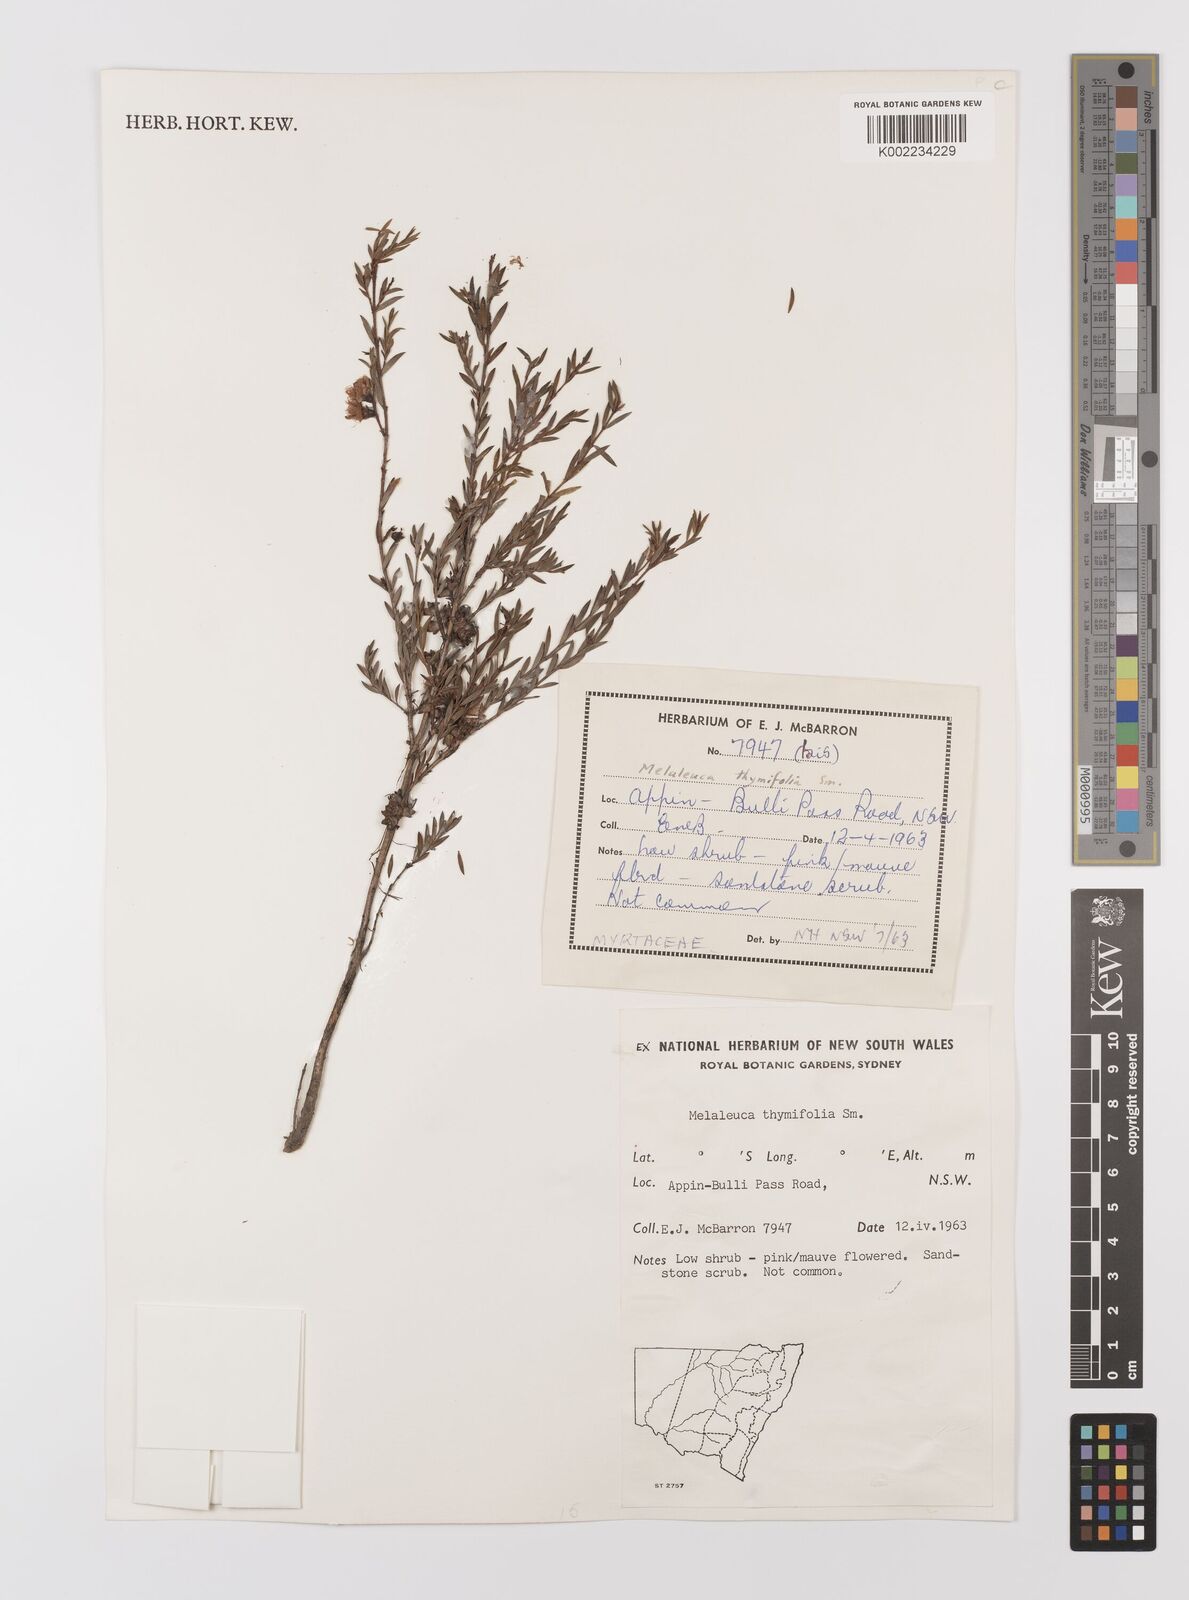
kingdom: Plantae
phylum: Tracheophyta
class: Magnoliopsida
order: Myrtales
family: Myrtaceae
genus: Melaleuca
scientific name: Melaleuca thymifolia
